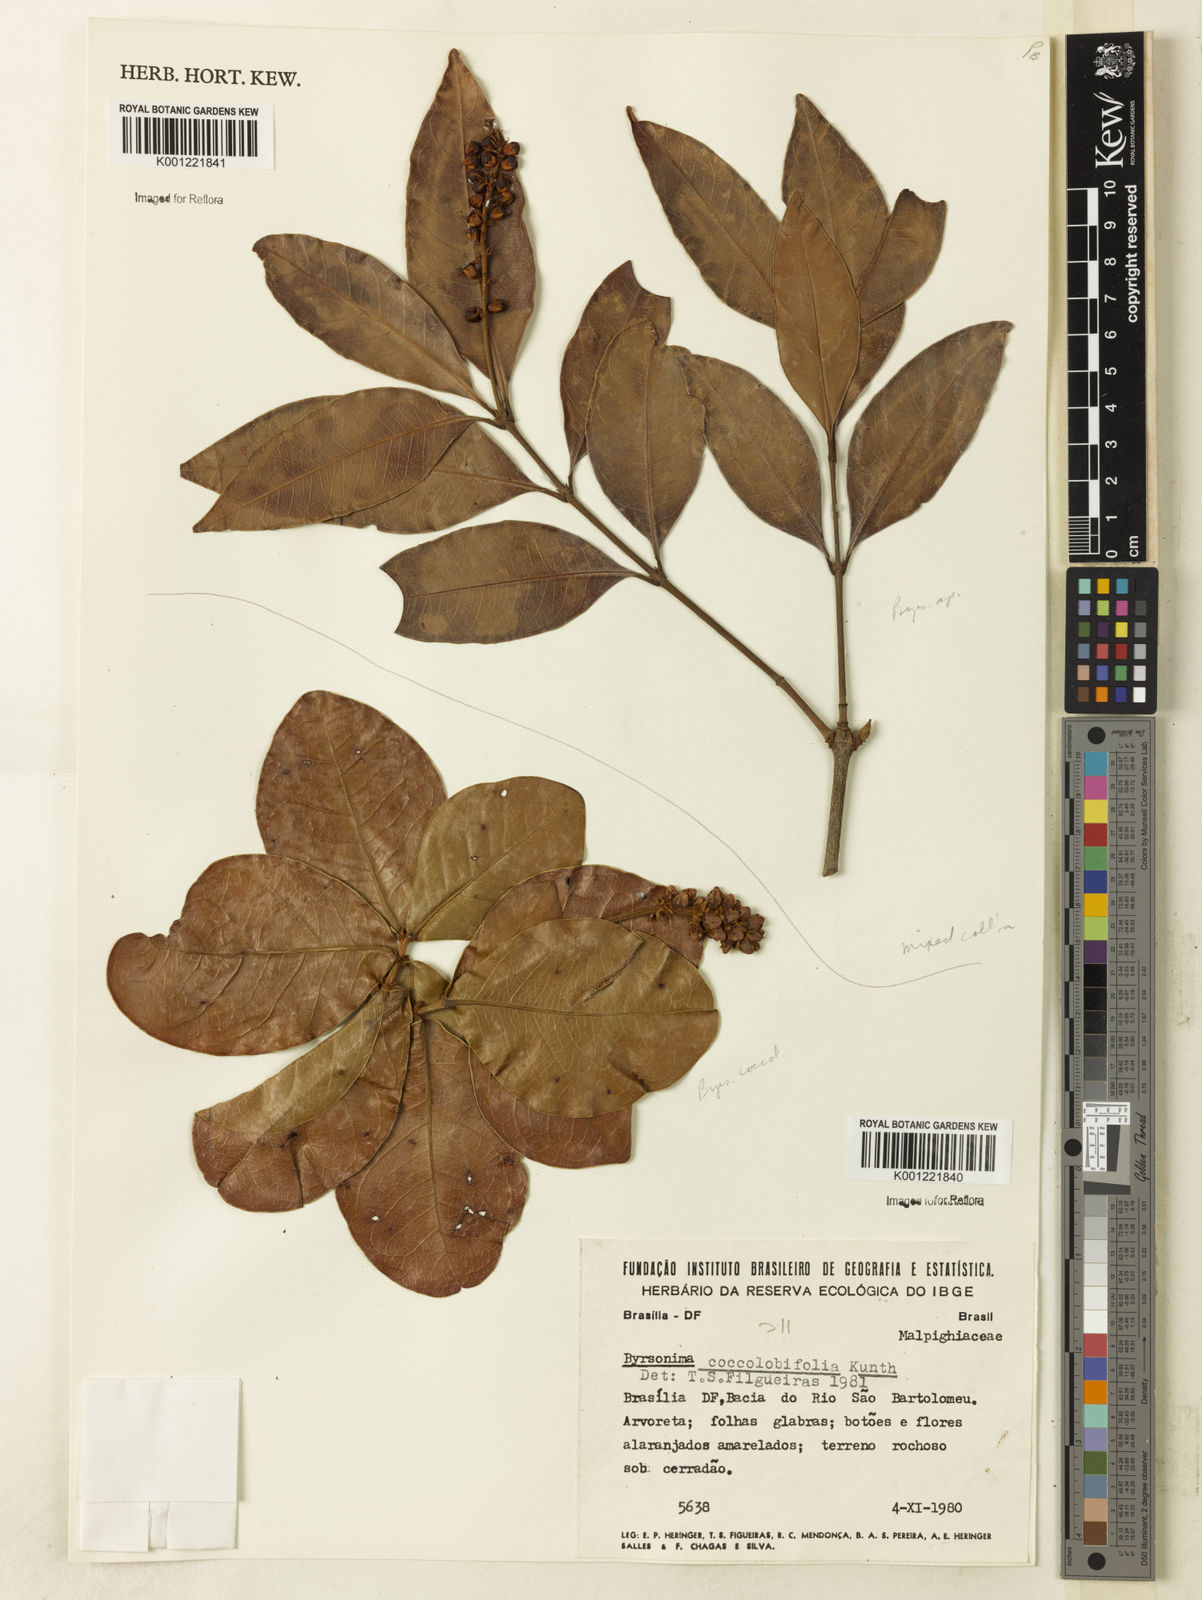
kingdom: Plantae
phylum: Tracheophyta
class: Magnoliopsida
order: Malpighiales
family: Malpighiaceae
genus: Byrsonima
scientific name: Byrsonima coccolobifolia
